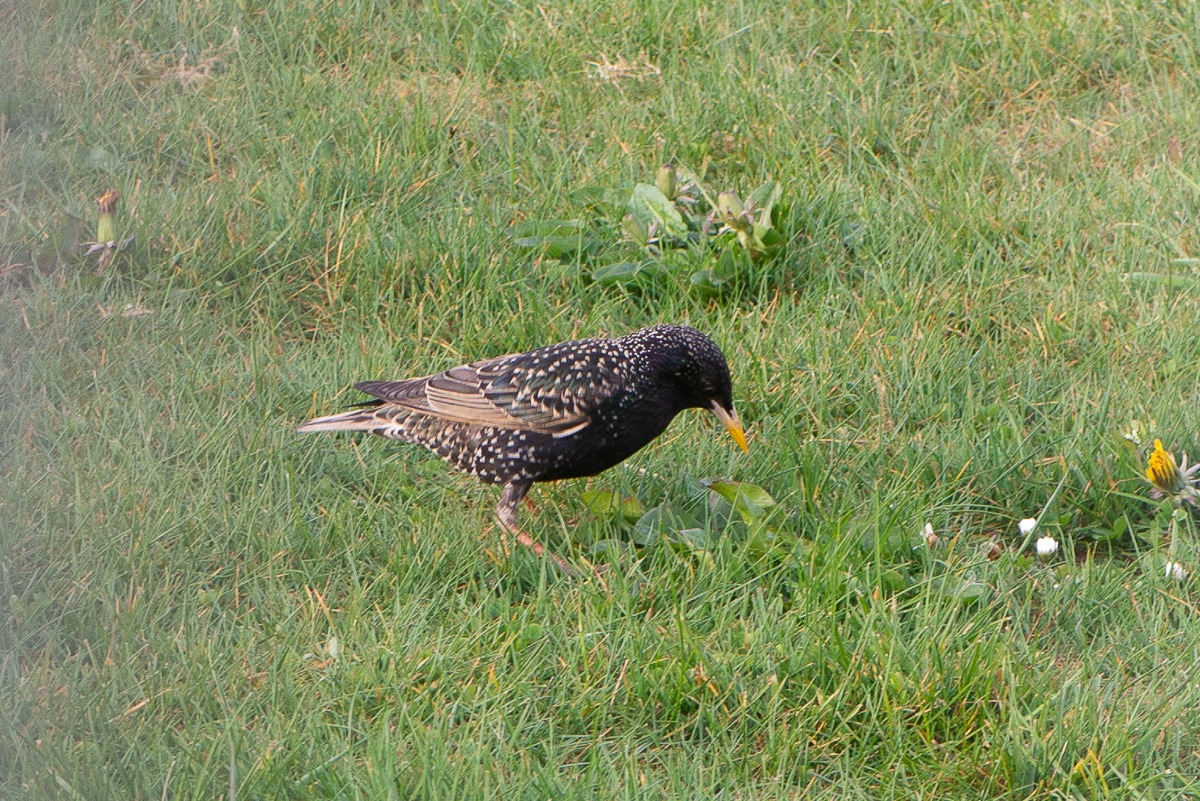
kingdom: Animalia
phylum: Chordata
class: Aves
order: Passeriformes
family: Sturnidae
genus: Sturnus
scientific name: Sturnus vulgaris
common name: Stær
